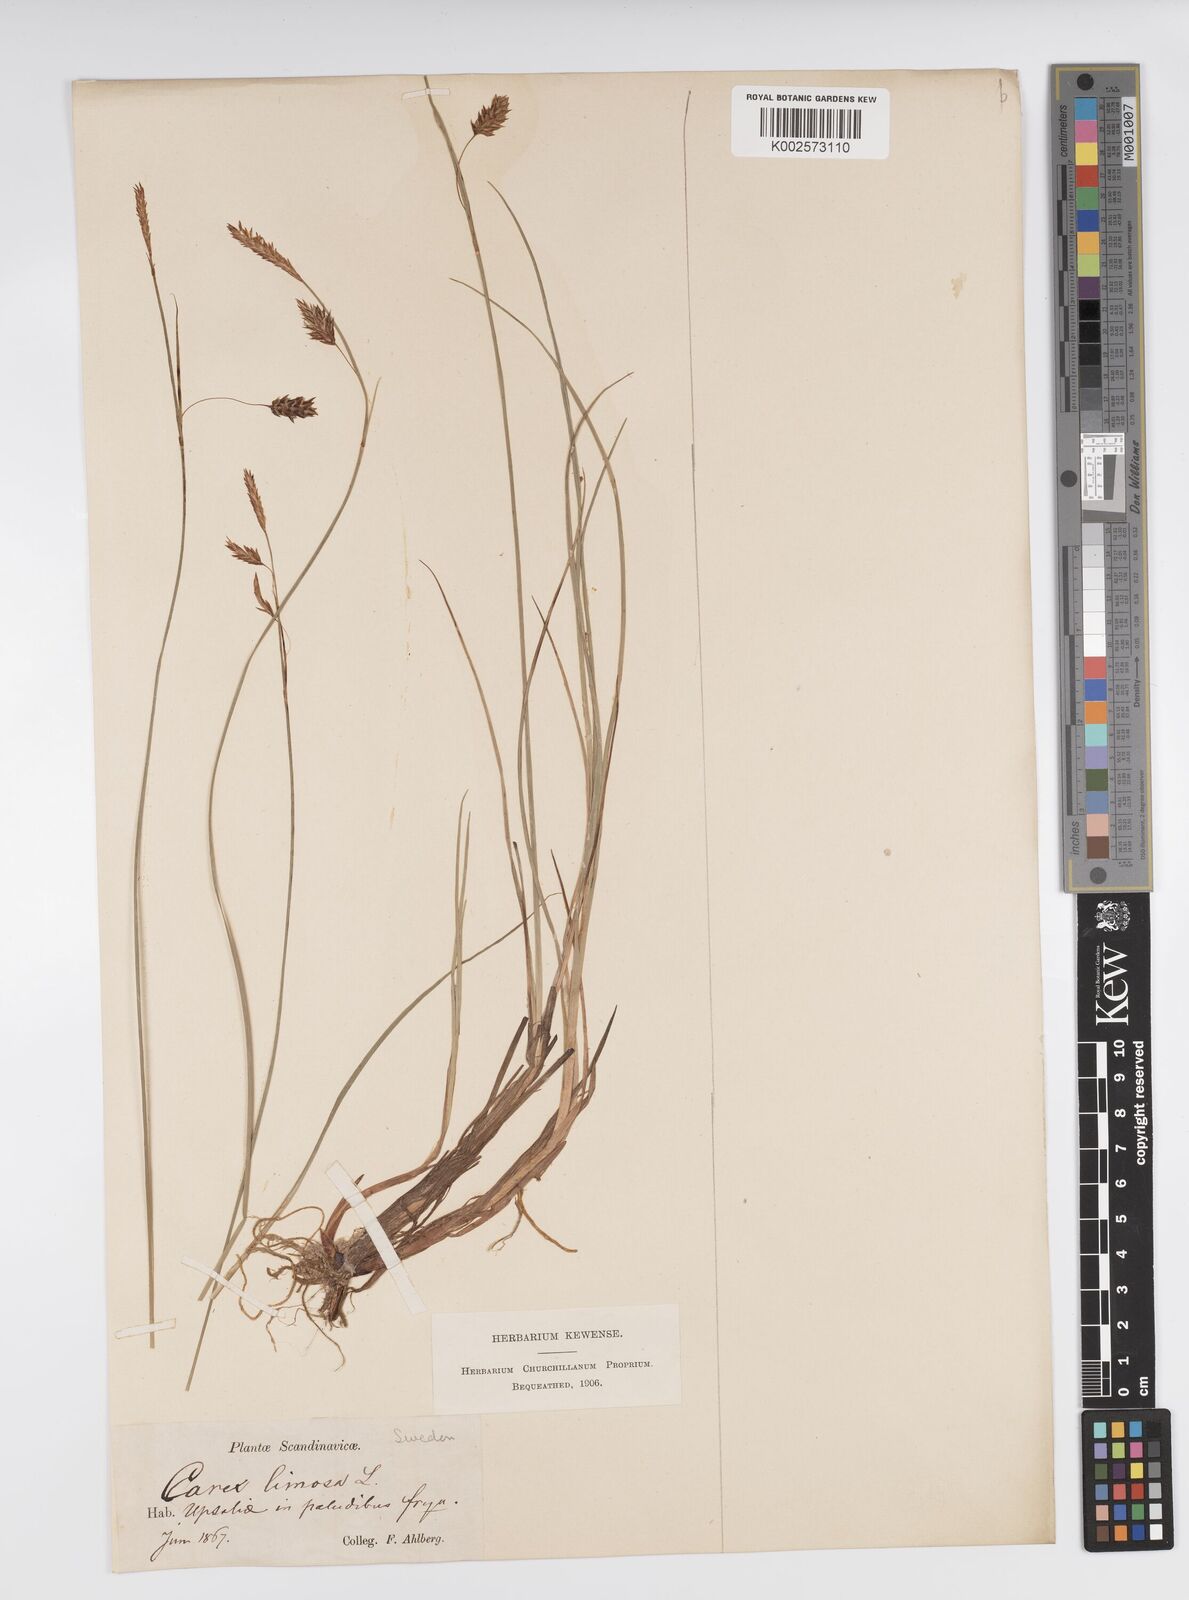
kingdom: Plantae
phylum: Tracheophyta
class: Liliopsida
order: Poales
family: Cyperaceae
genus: Carex
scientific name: Carex limosa
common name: Bog sedge
